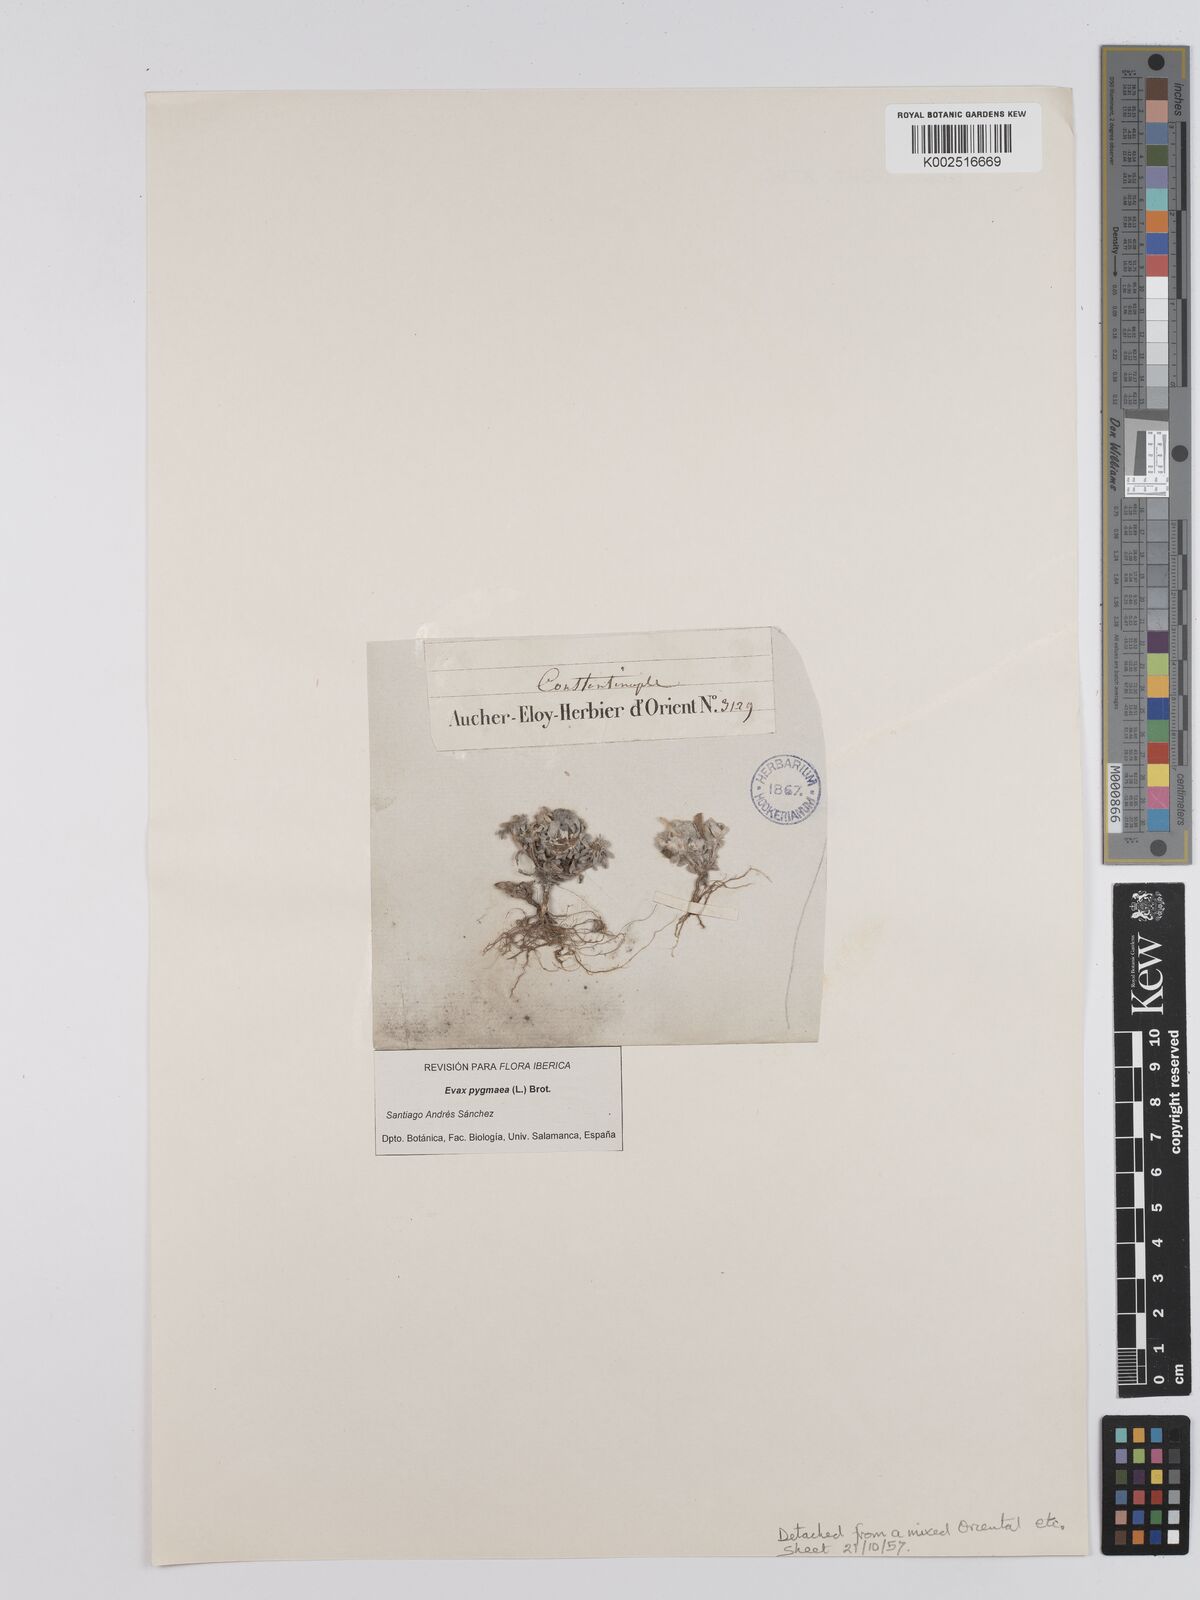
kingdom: Plantae
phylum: Tracheophyta
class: Magnoliopsida
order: Asterales
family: Asteraceae
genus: Filago
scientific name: Filago pygmaea
